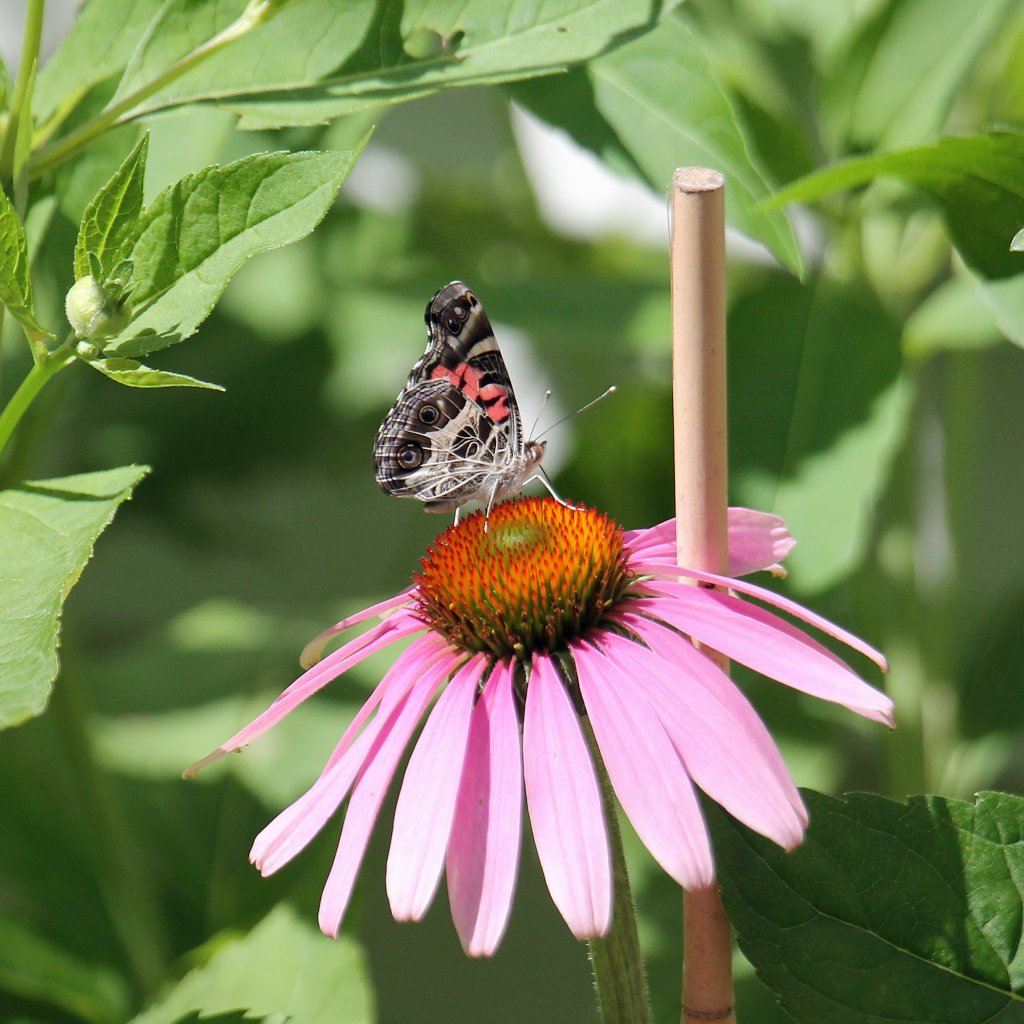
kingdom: Animalia
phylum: Arthropoda
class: Insecta
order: Lepidoptera
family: Nymphalidae
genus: Vanessa
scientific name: Vanessa virginiensis
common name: American Lady
